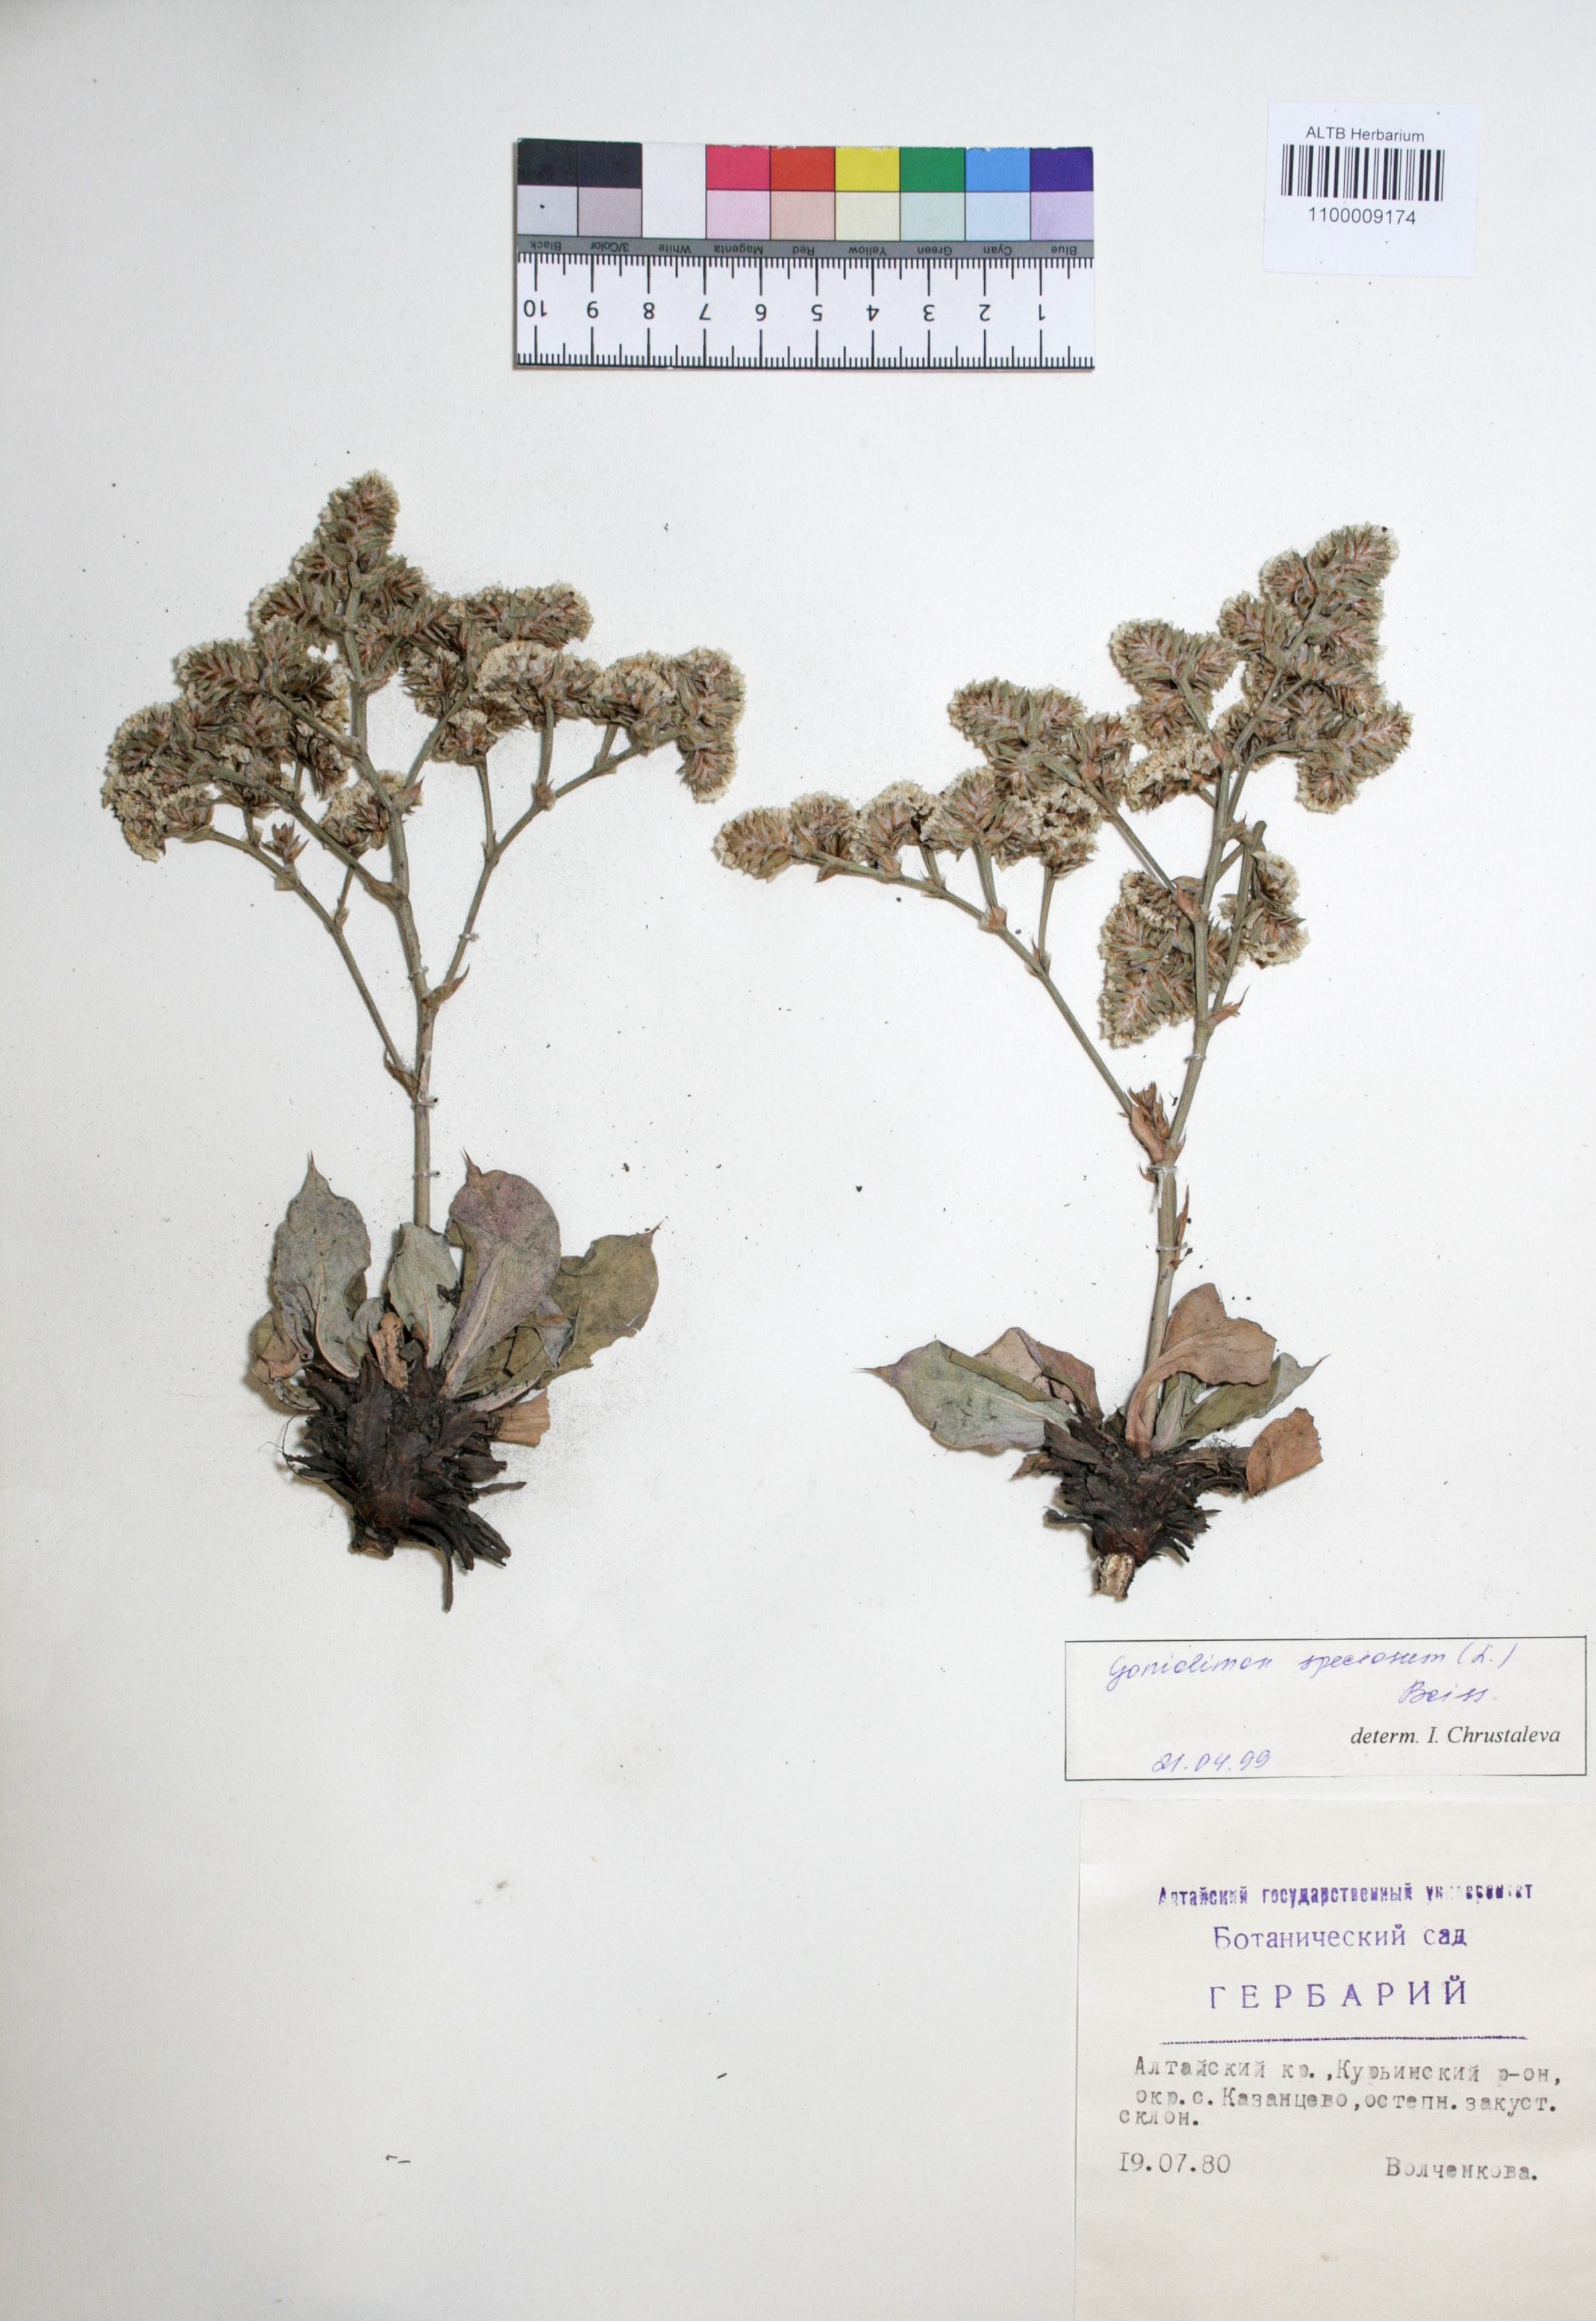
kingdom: Plantae
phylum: Tracheophyta
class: Magnoliopsida
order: Caryophyllales
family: Plumbaginaceae
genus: Goniolimon
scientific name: Goniolimon speciosum
